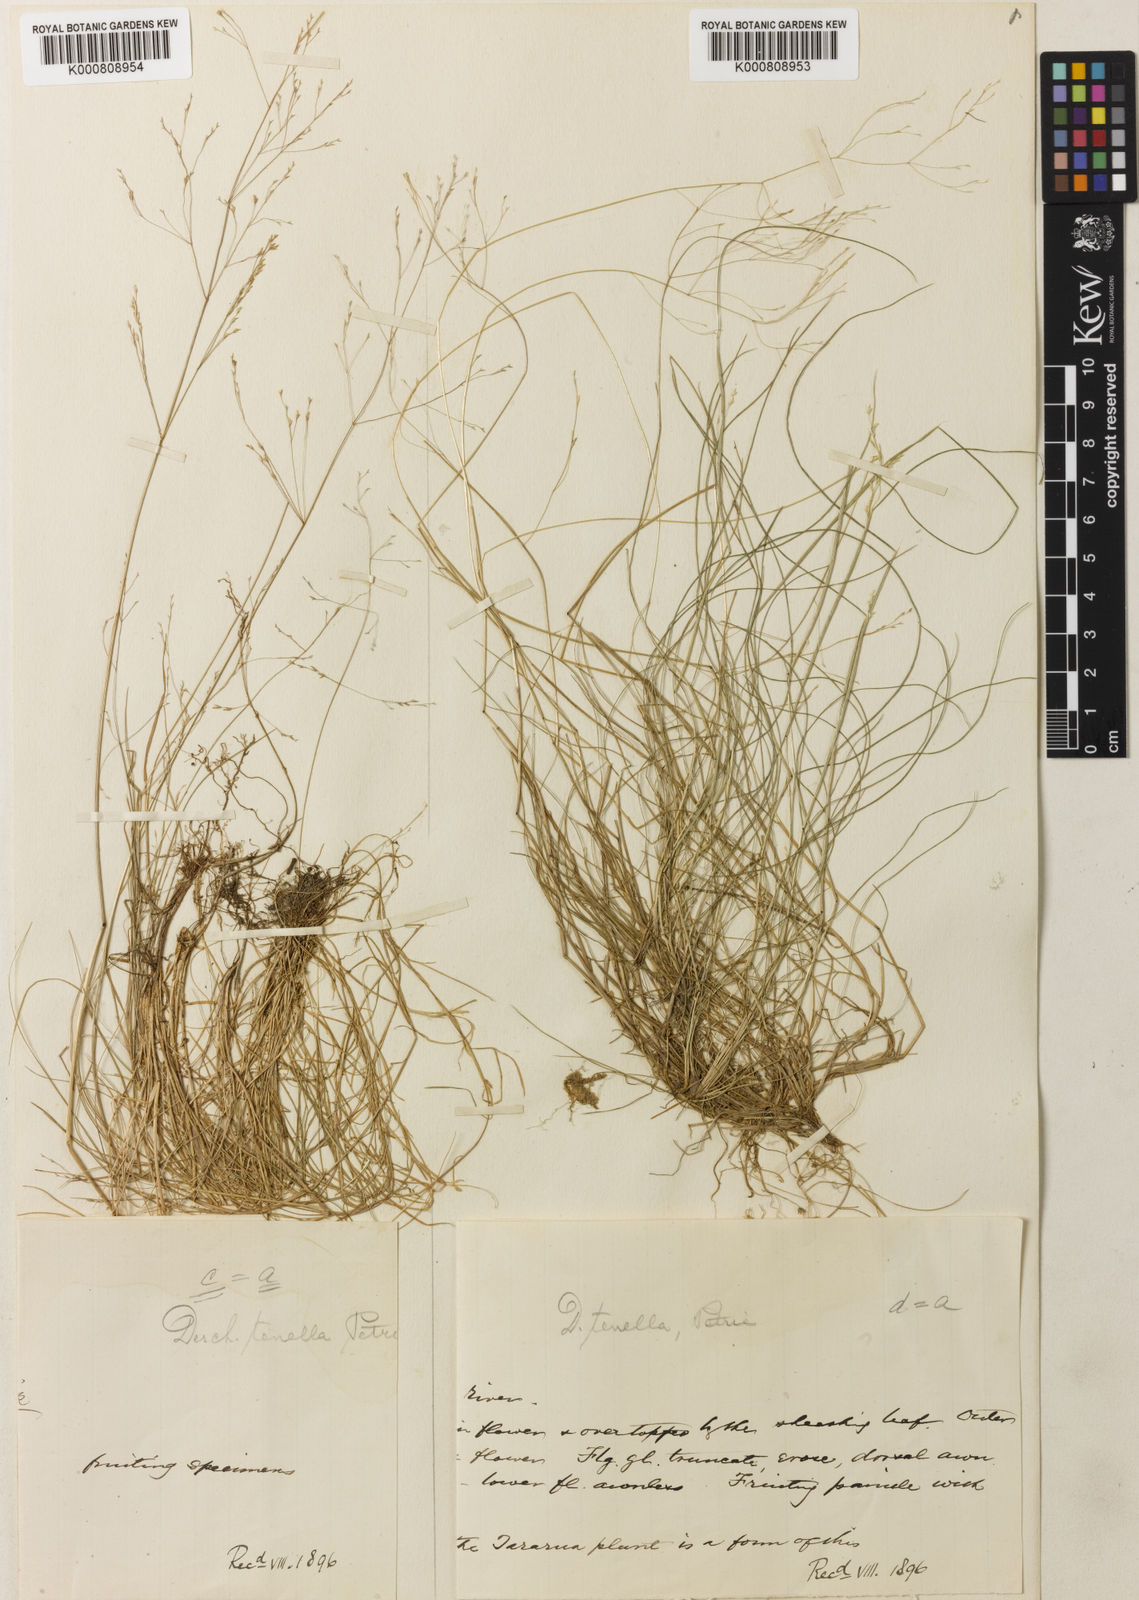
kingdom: Plantae
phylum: Tracheophyta
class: Liliopsida
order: Poales
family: Poaceae
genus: Deschampsia
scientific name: Deschampsia tenella
